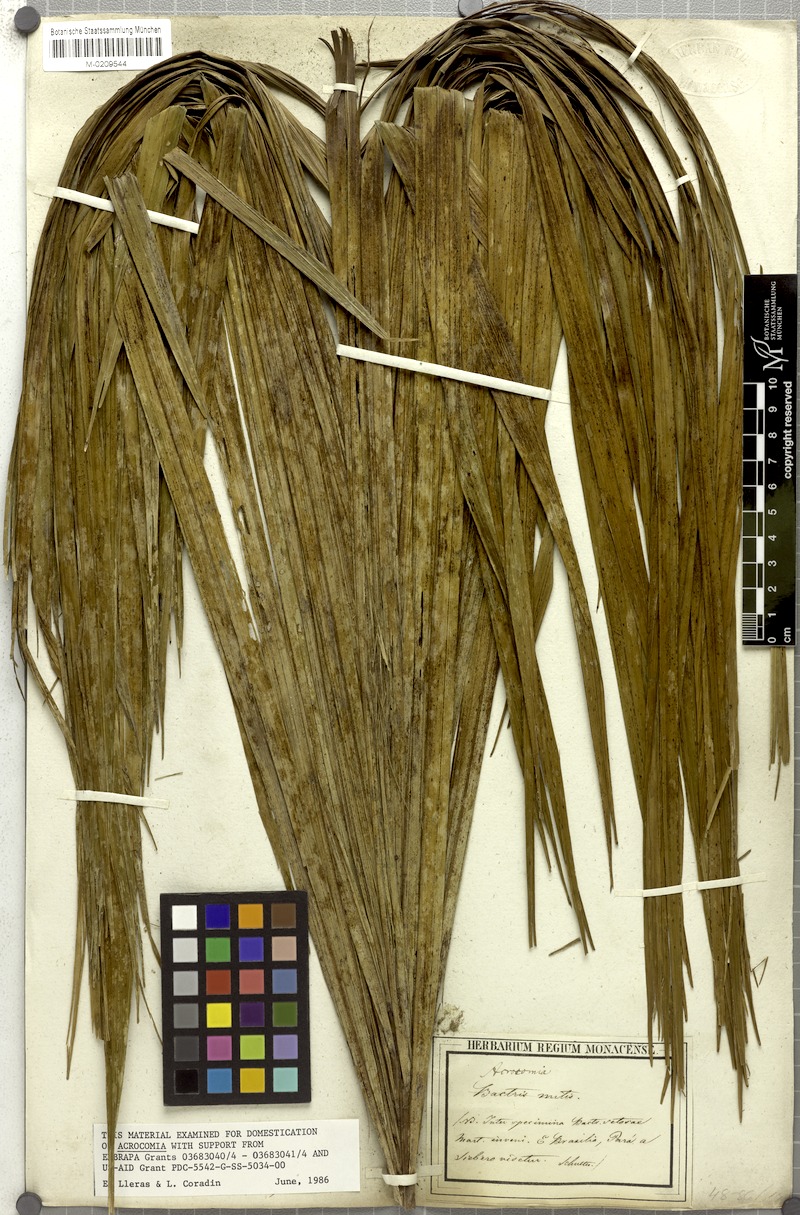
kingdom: Plantae
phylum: Tracheophyta
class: Liliopsida
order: Arecales
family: Arecaceae
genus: Bactris
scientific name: Bactris setosa
